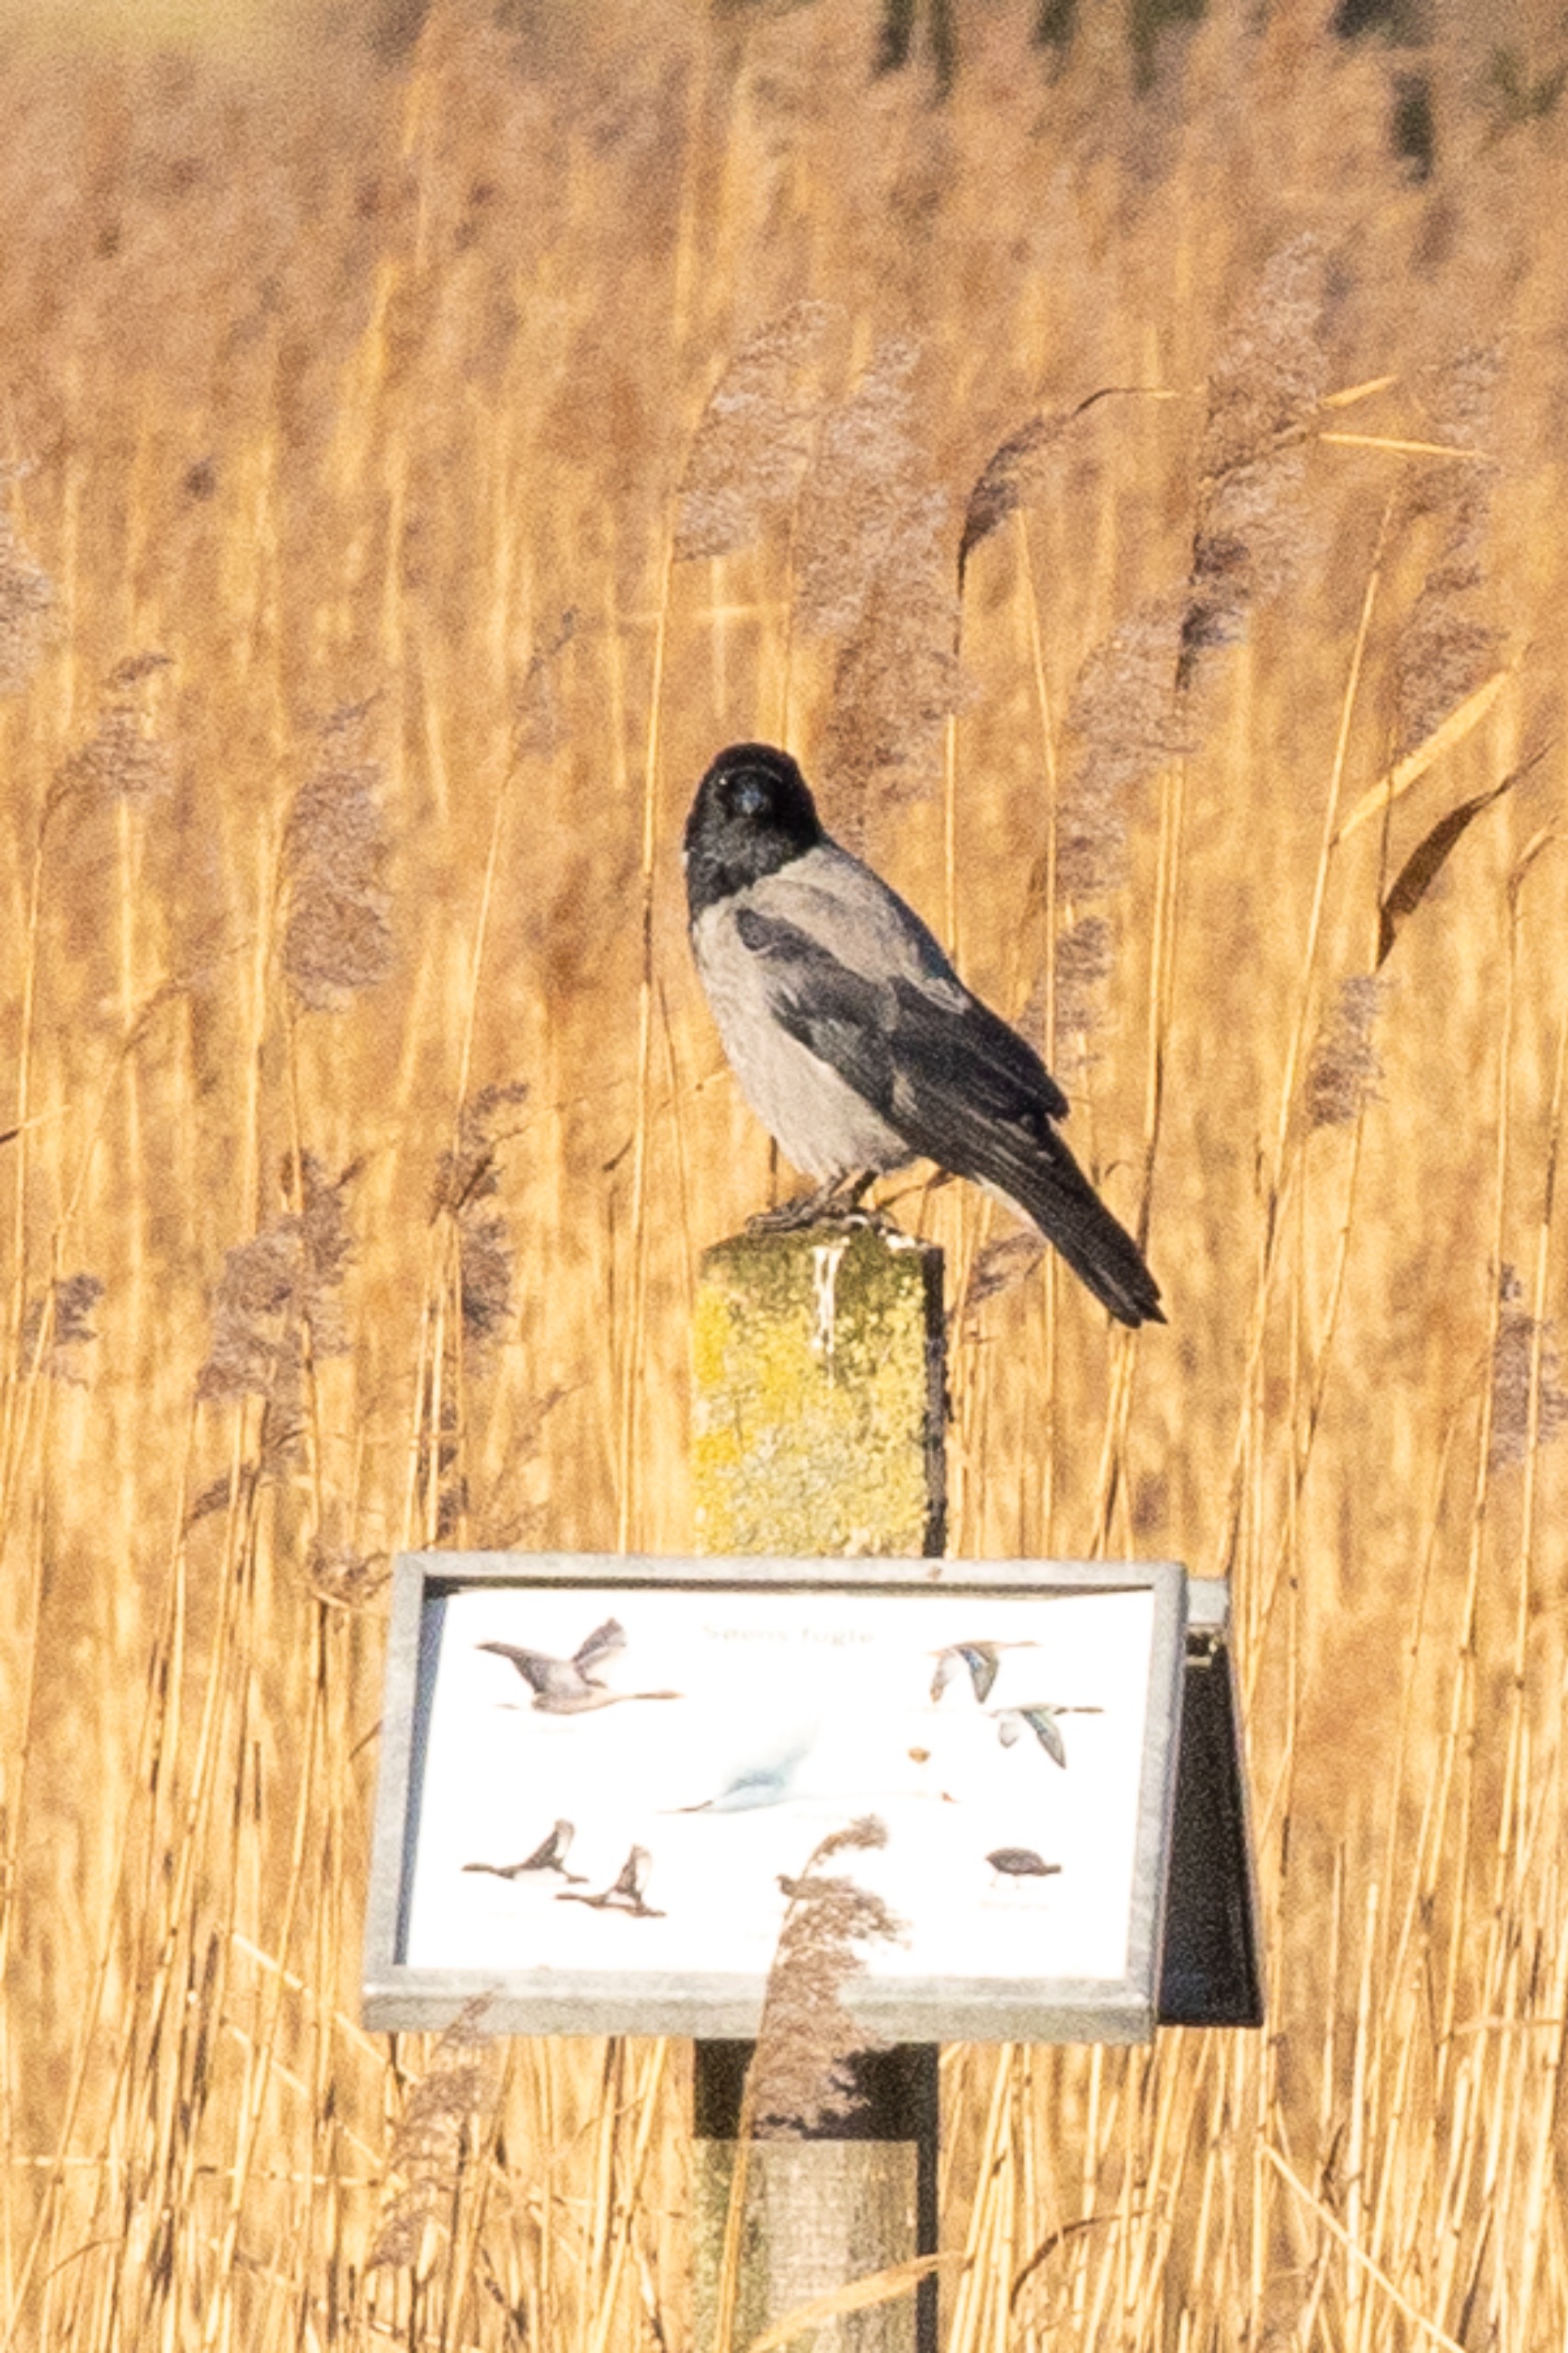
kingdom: Animalia
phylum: Chordata
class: Aves
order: Passeriformes
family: Corvidae
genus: Corvus
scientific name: Corvus cornix
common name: Gråkrage
